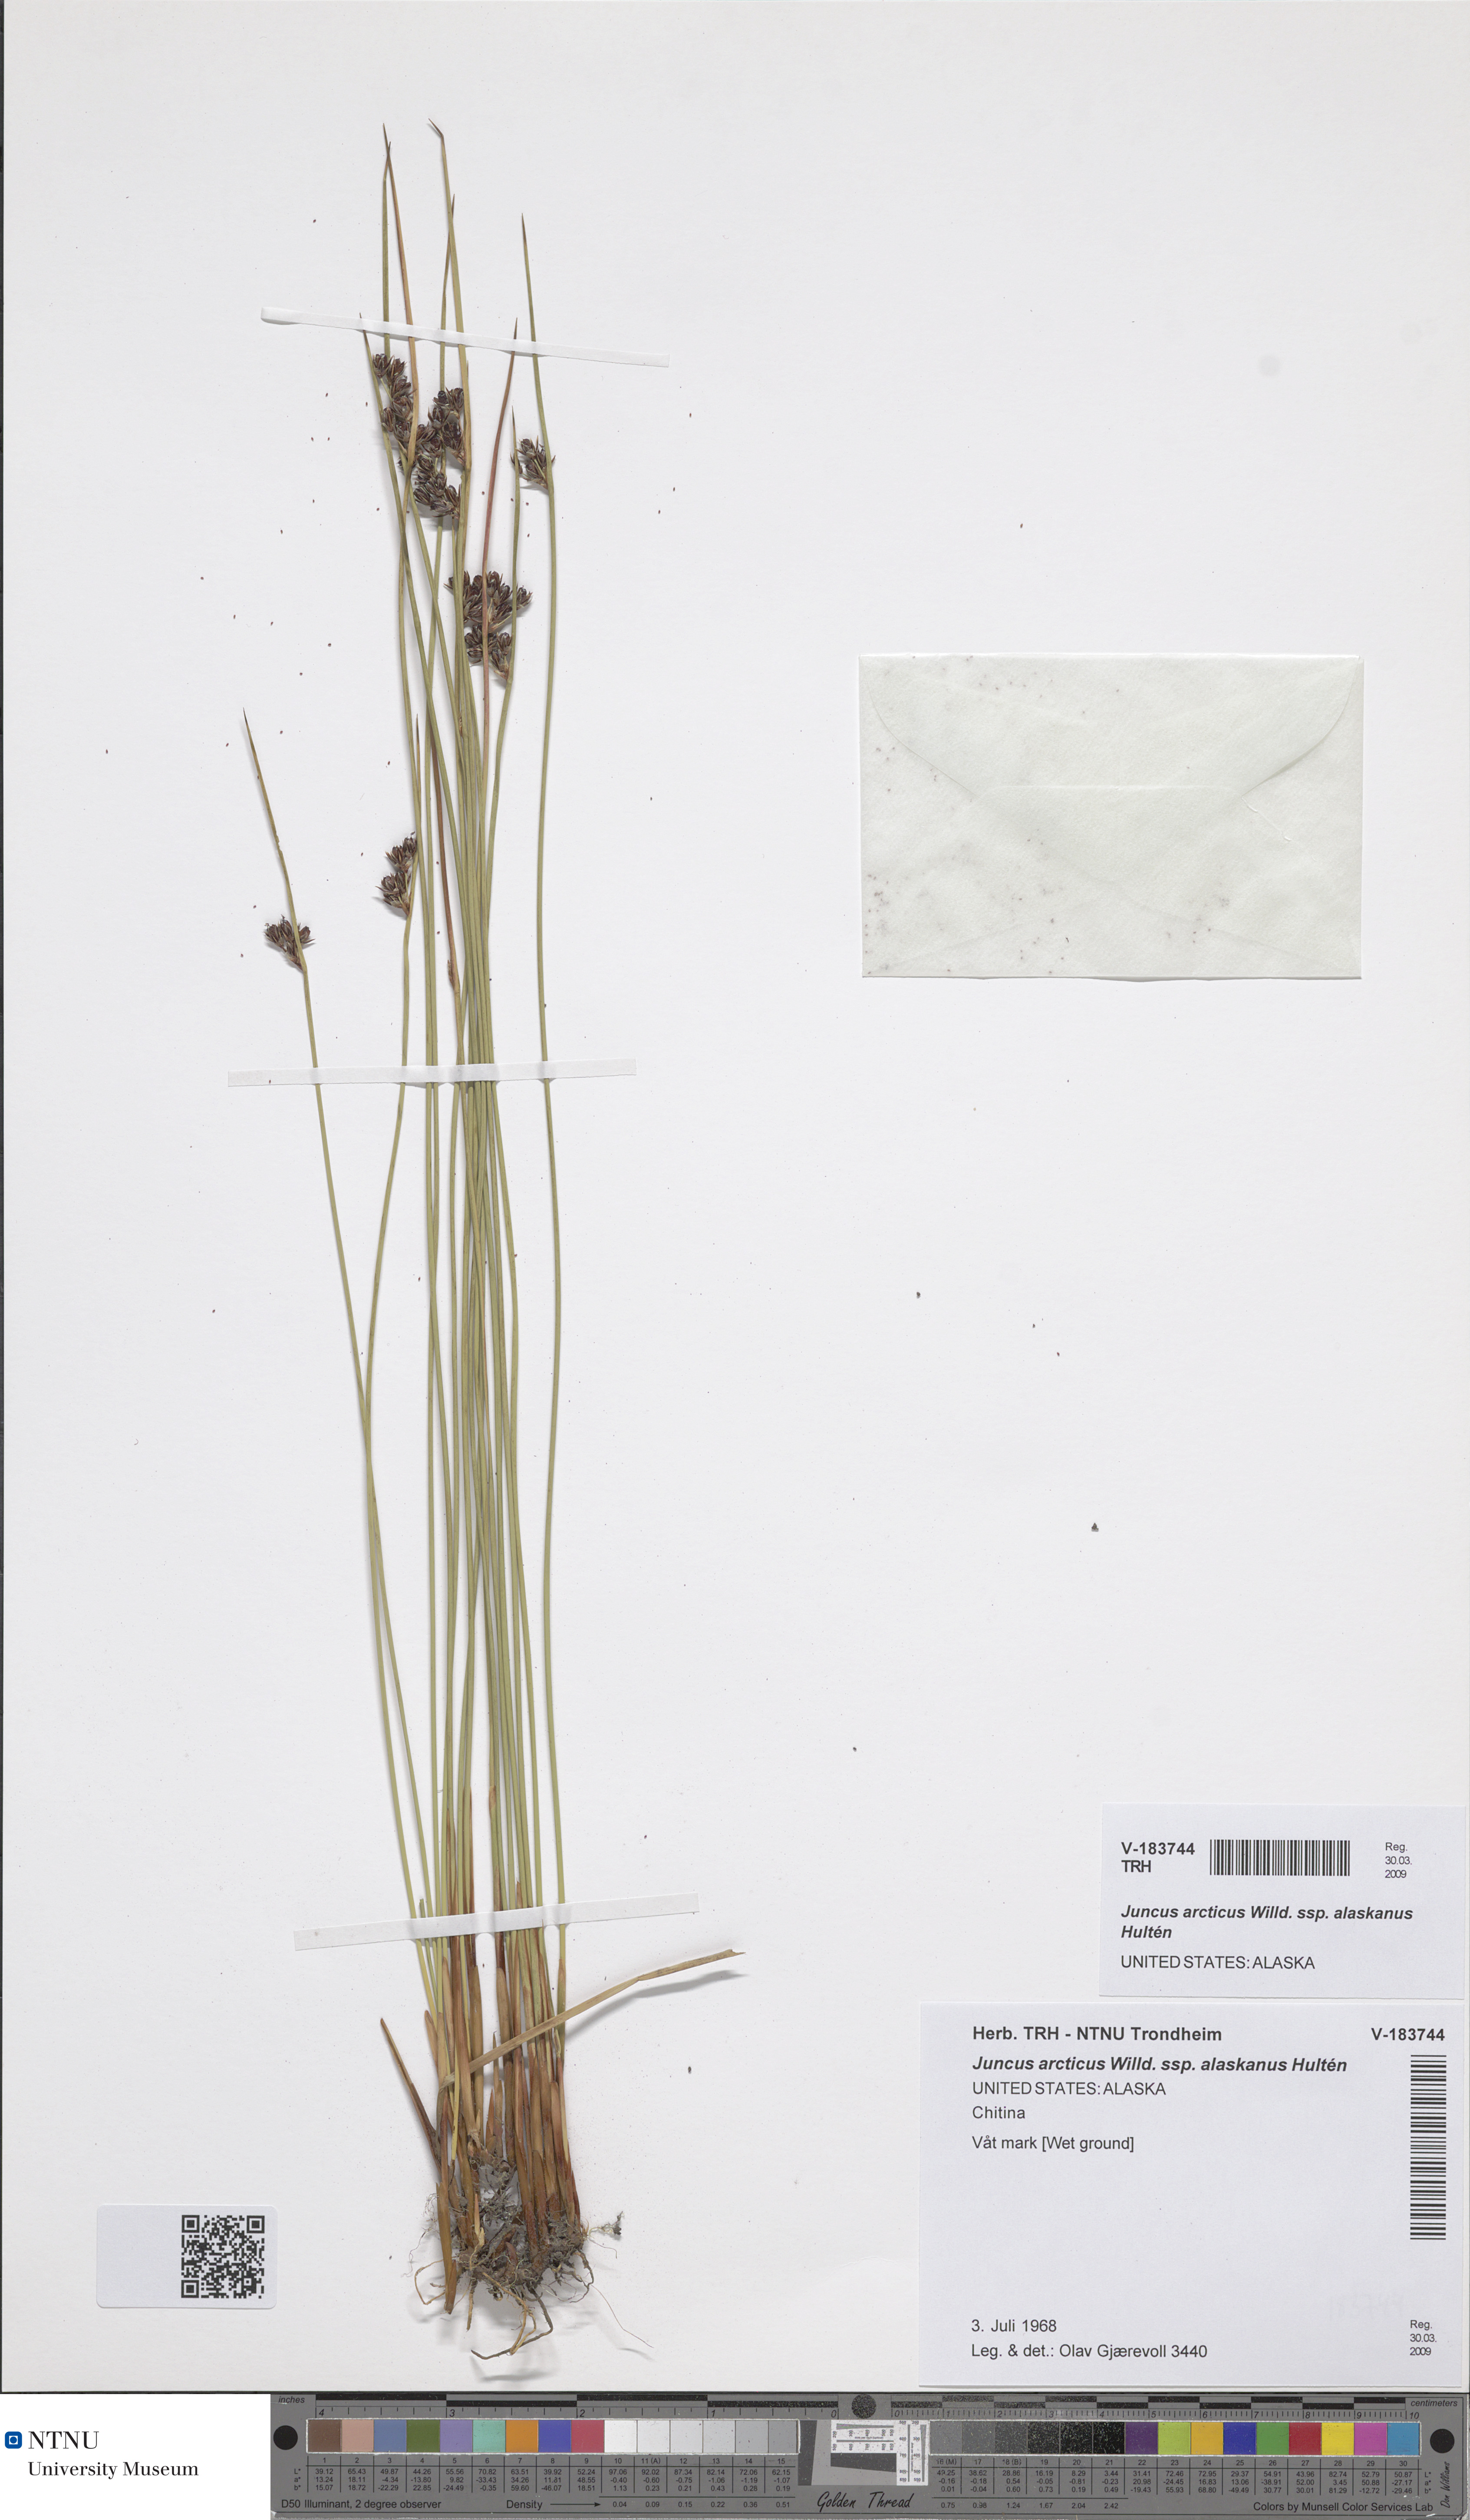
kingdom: Plantae
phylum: Tracheophyta
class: Liliopsida
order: Poales
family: Juncaceae
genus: Juncus
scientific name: Juncus arcticus
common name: Arctic rush
